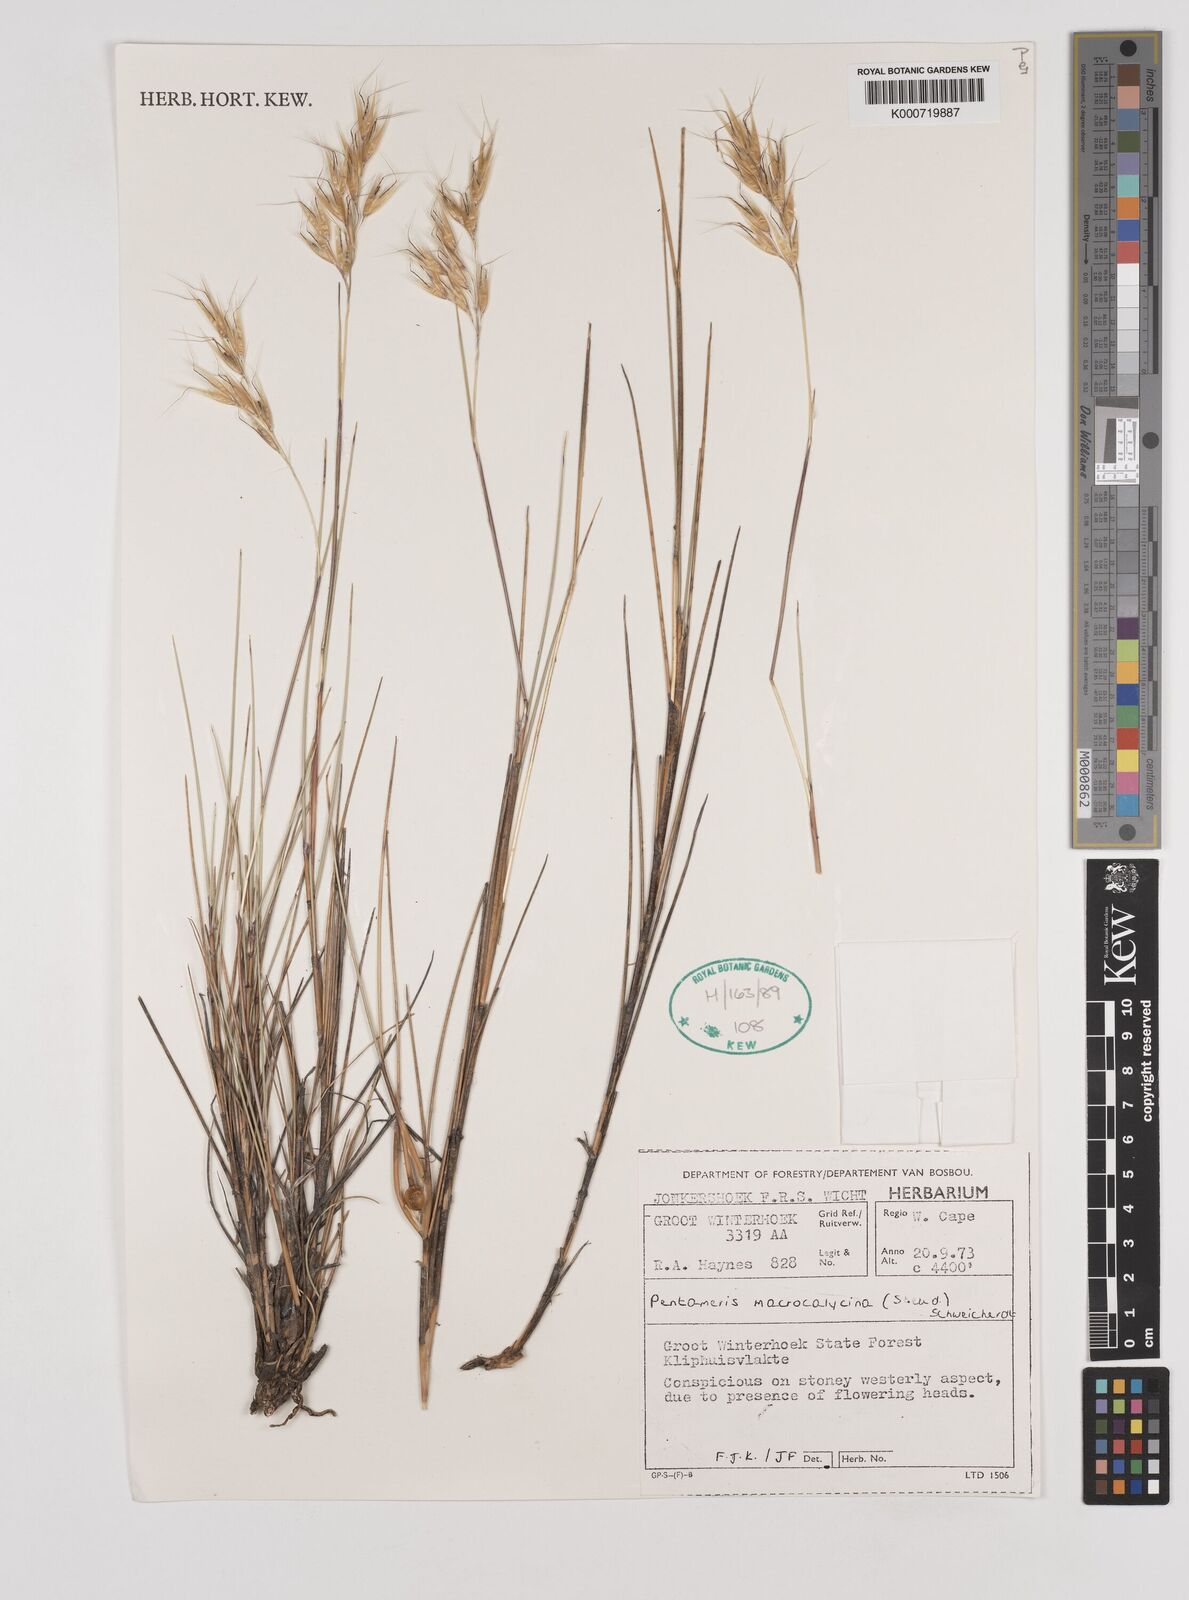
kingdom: Plantae
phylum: Tracheophyta
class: Liliopsida
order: Poales
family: Poaceae
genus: Pentameris
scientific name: Pentameris macrocalycina
